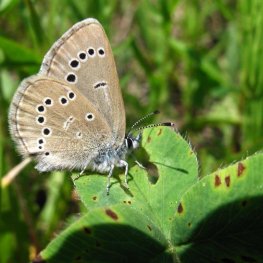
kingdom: Animalia
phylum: Arthropoda
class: Insecta
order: Lepidoptera
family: Lycaenidae
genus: Glaucopsyche
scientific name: Glaucopsyche lygdamus
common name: Silvery Blue
